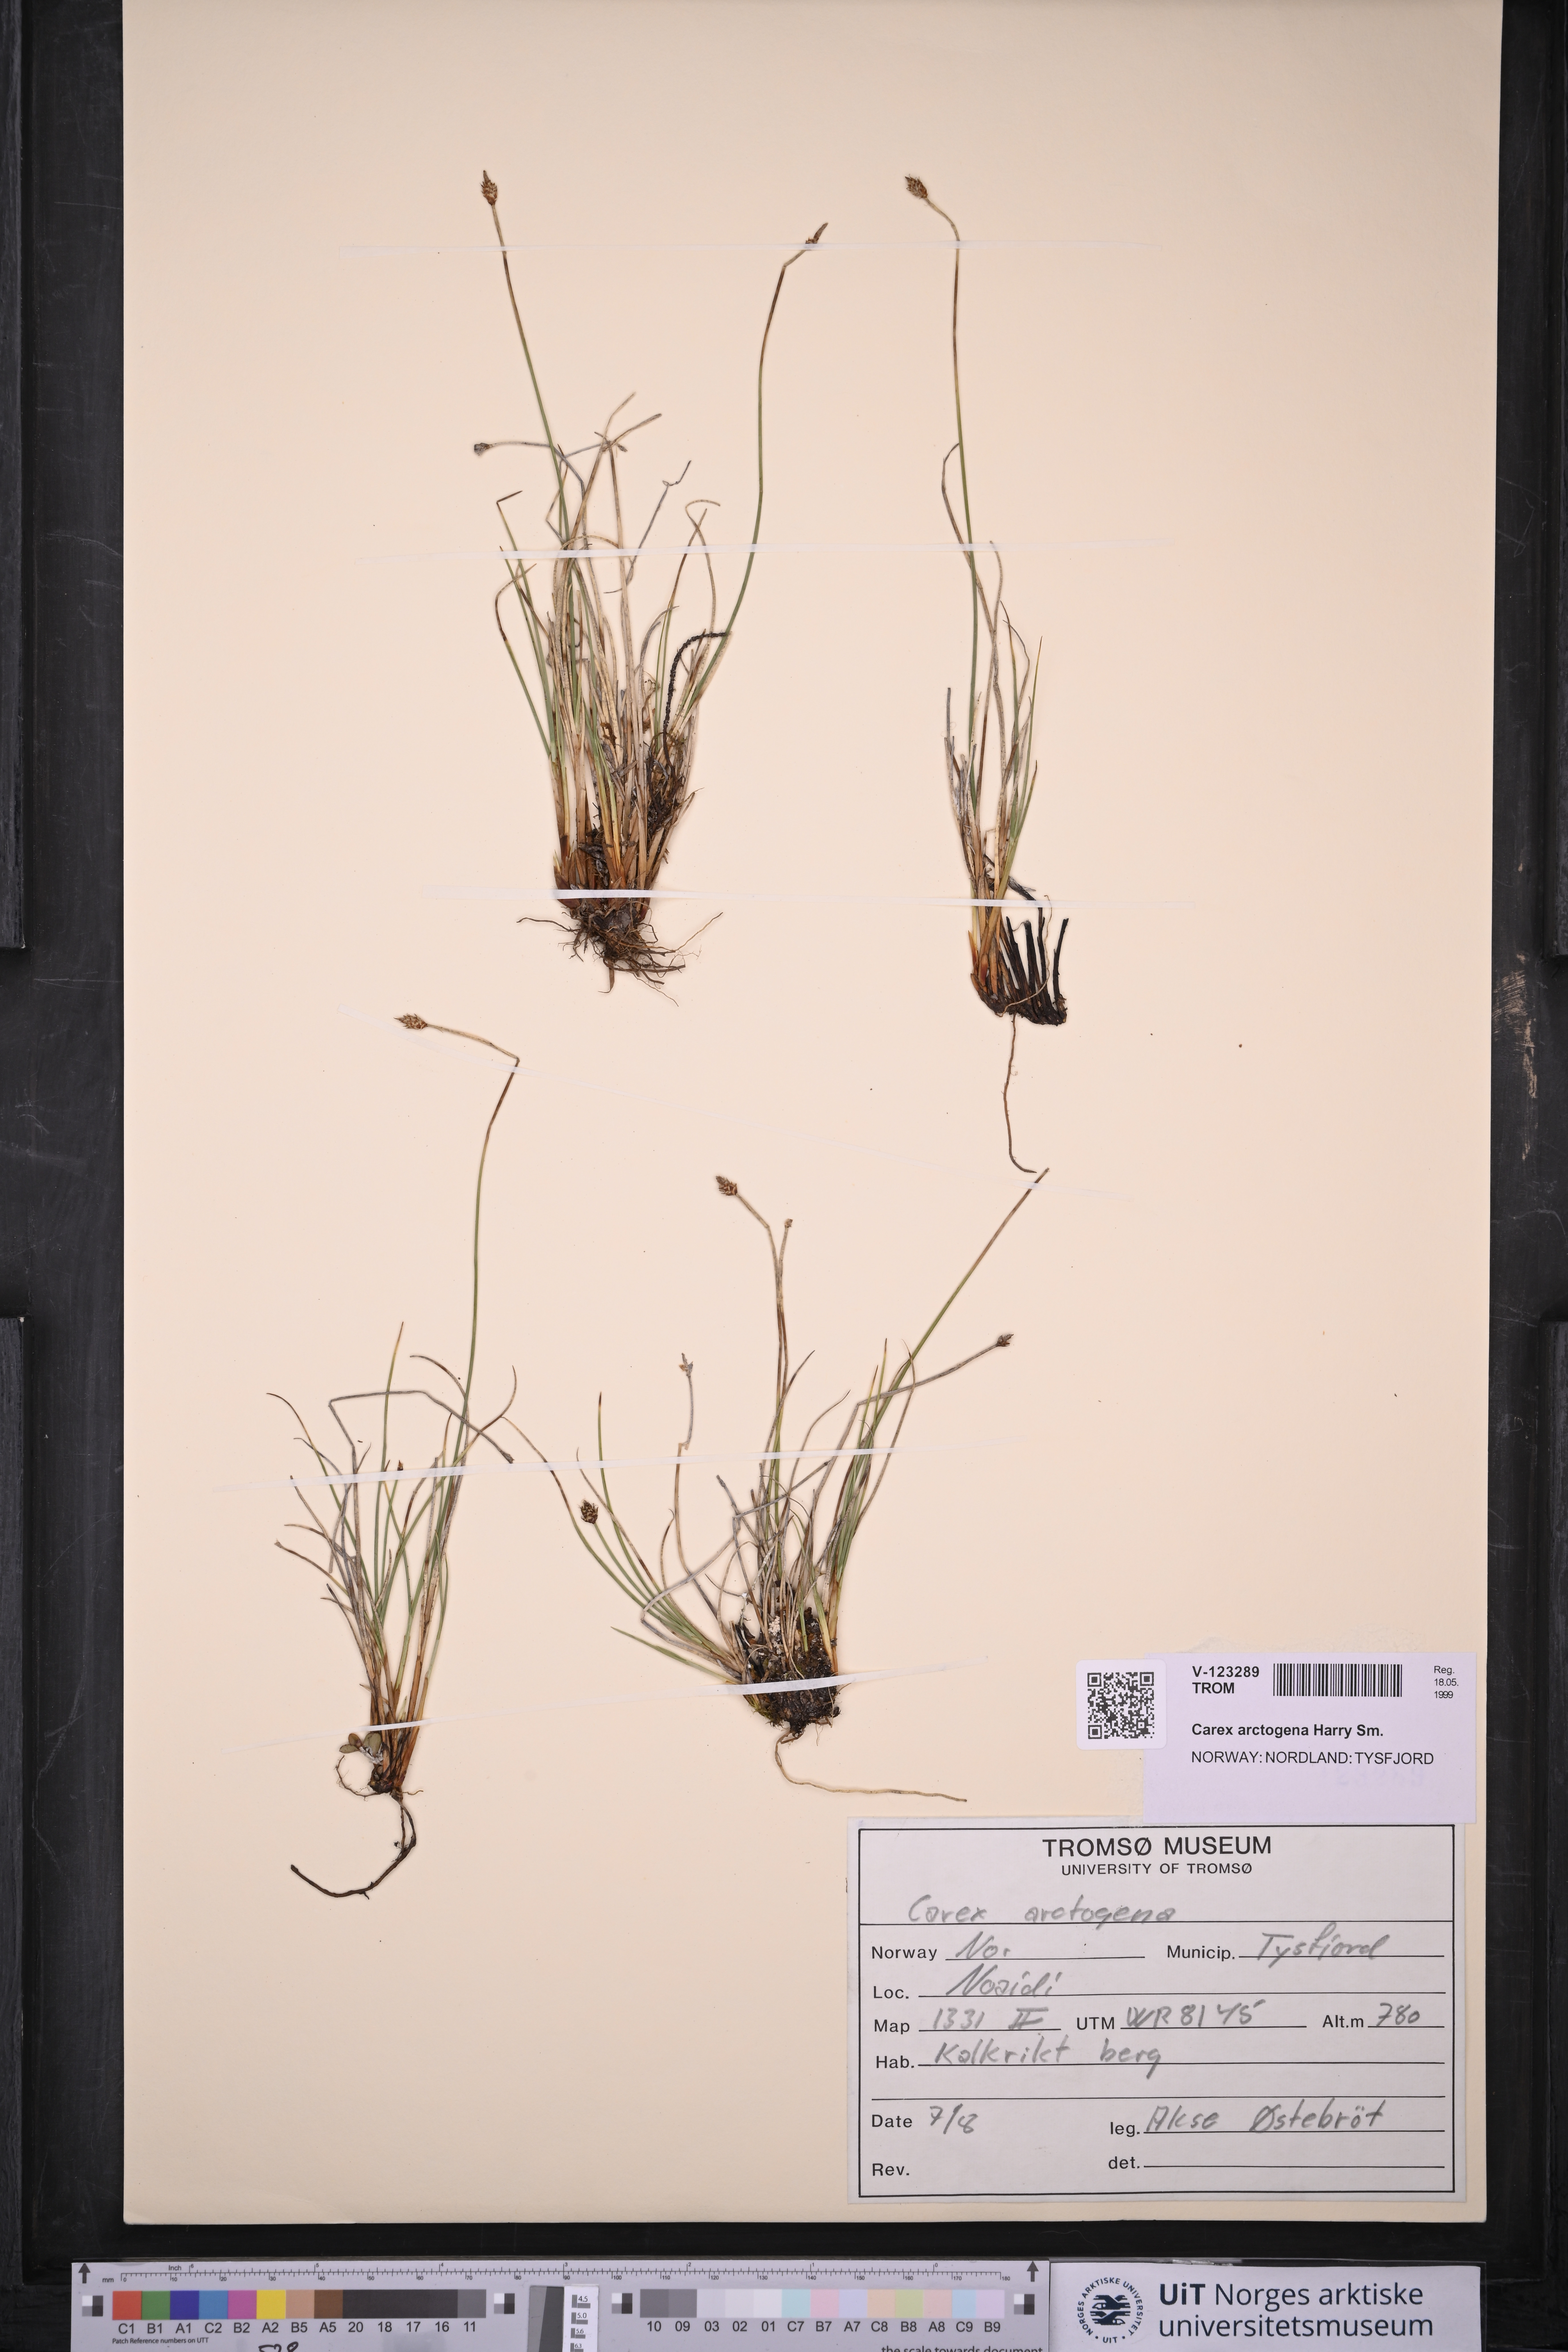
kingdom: Plantae
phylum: Tracheophyta
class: Liliopsida
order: Poales
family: Cyperaceae
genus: Carex
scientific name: Carex arctogena
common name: Black sedge
